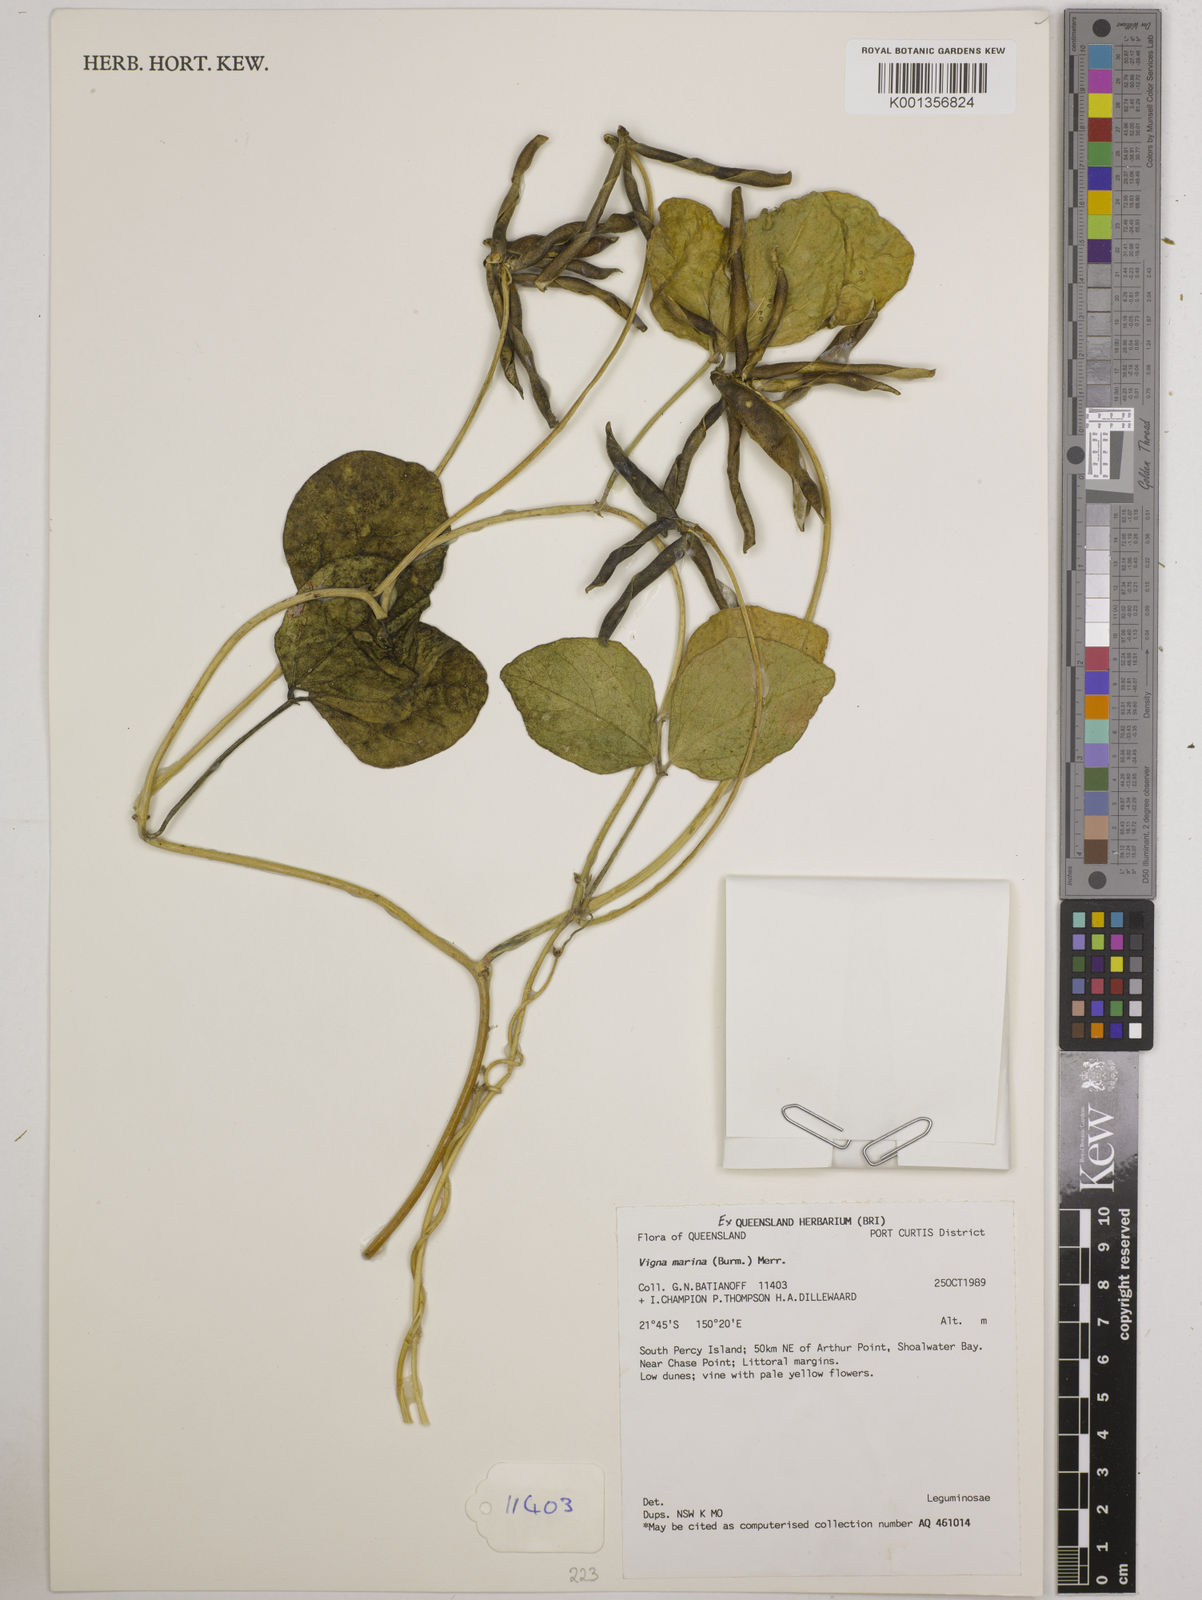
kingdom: Plantae
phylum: Tracheophyta
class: Magnoliopsida
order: Fabales
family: Fabaceae
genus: Vigna
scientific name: Vigna marina
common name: Dune-bean
